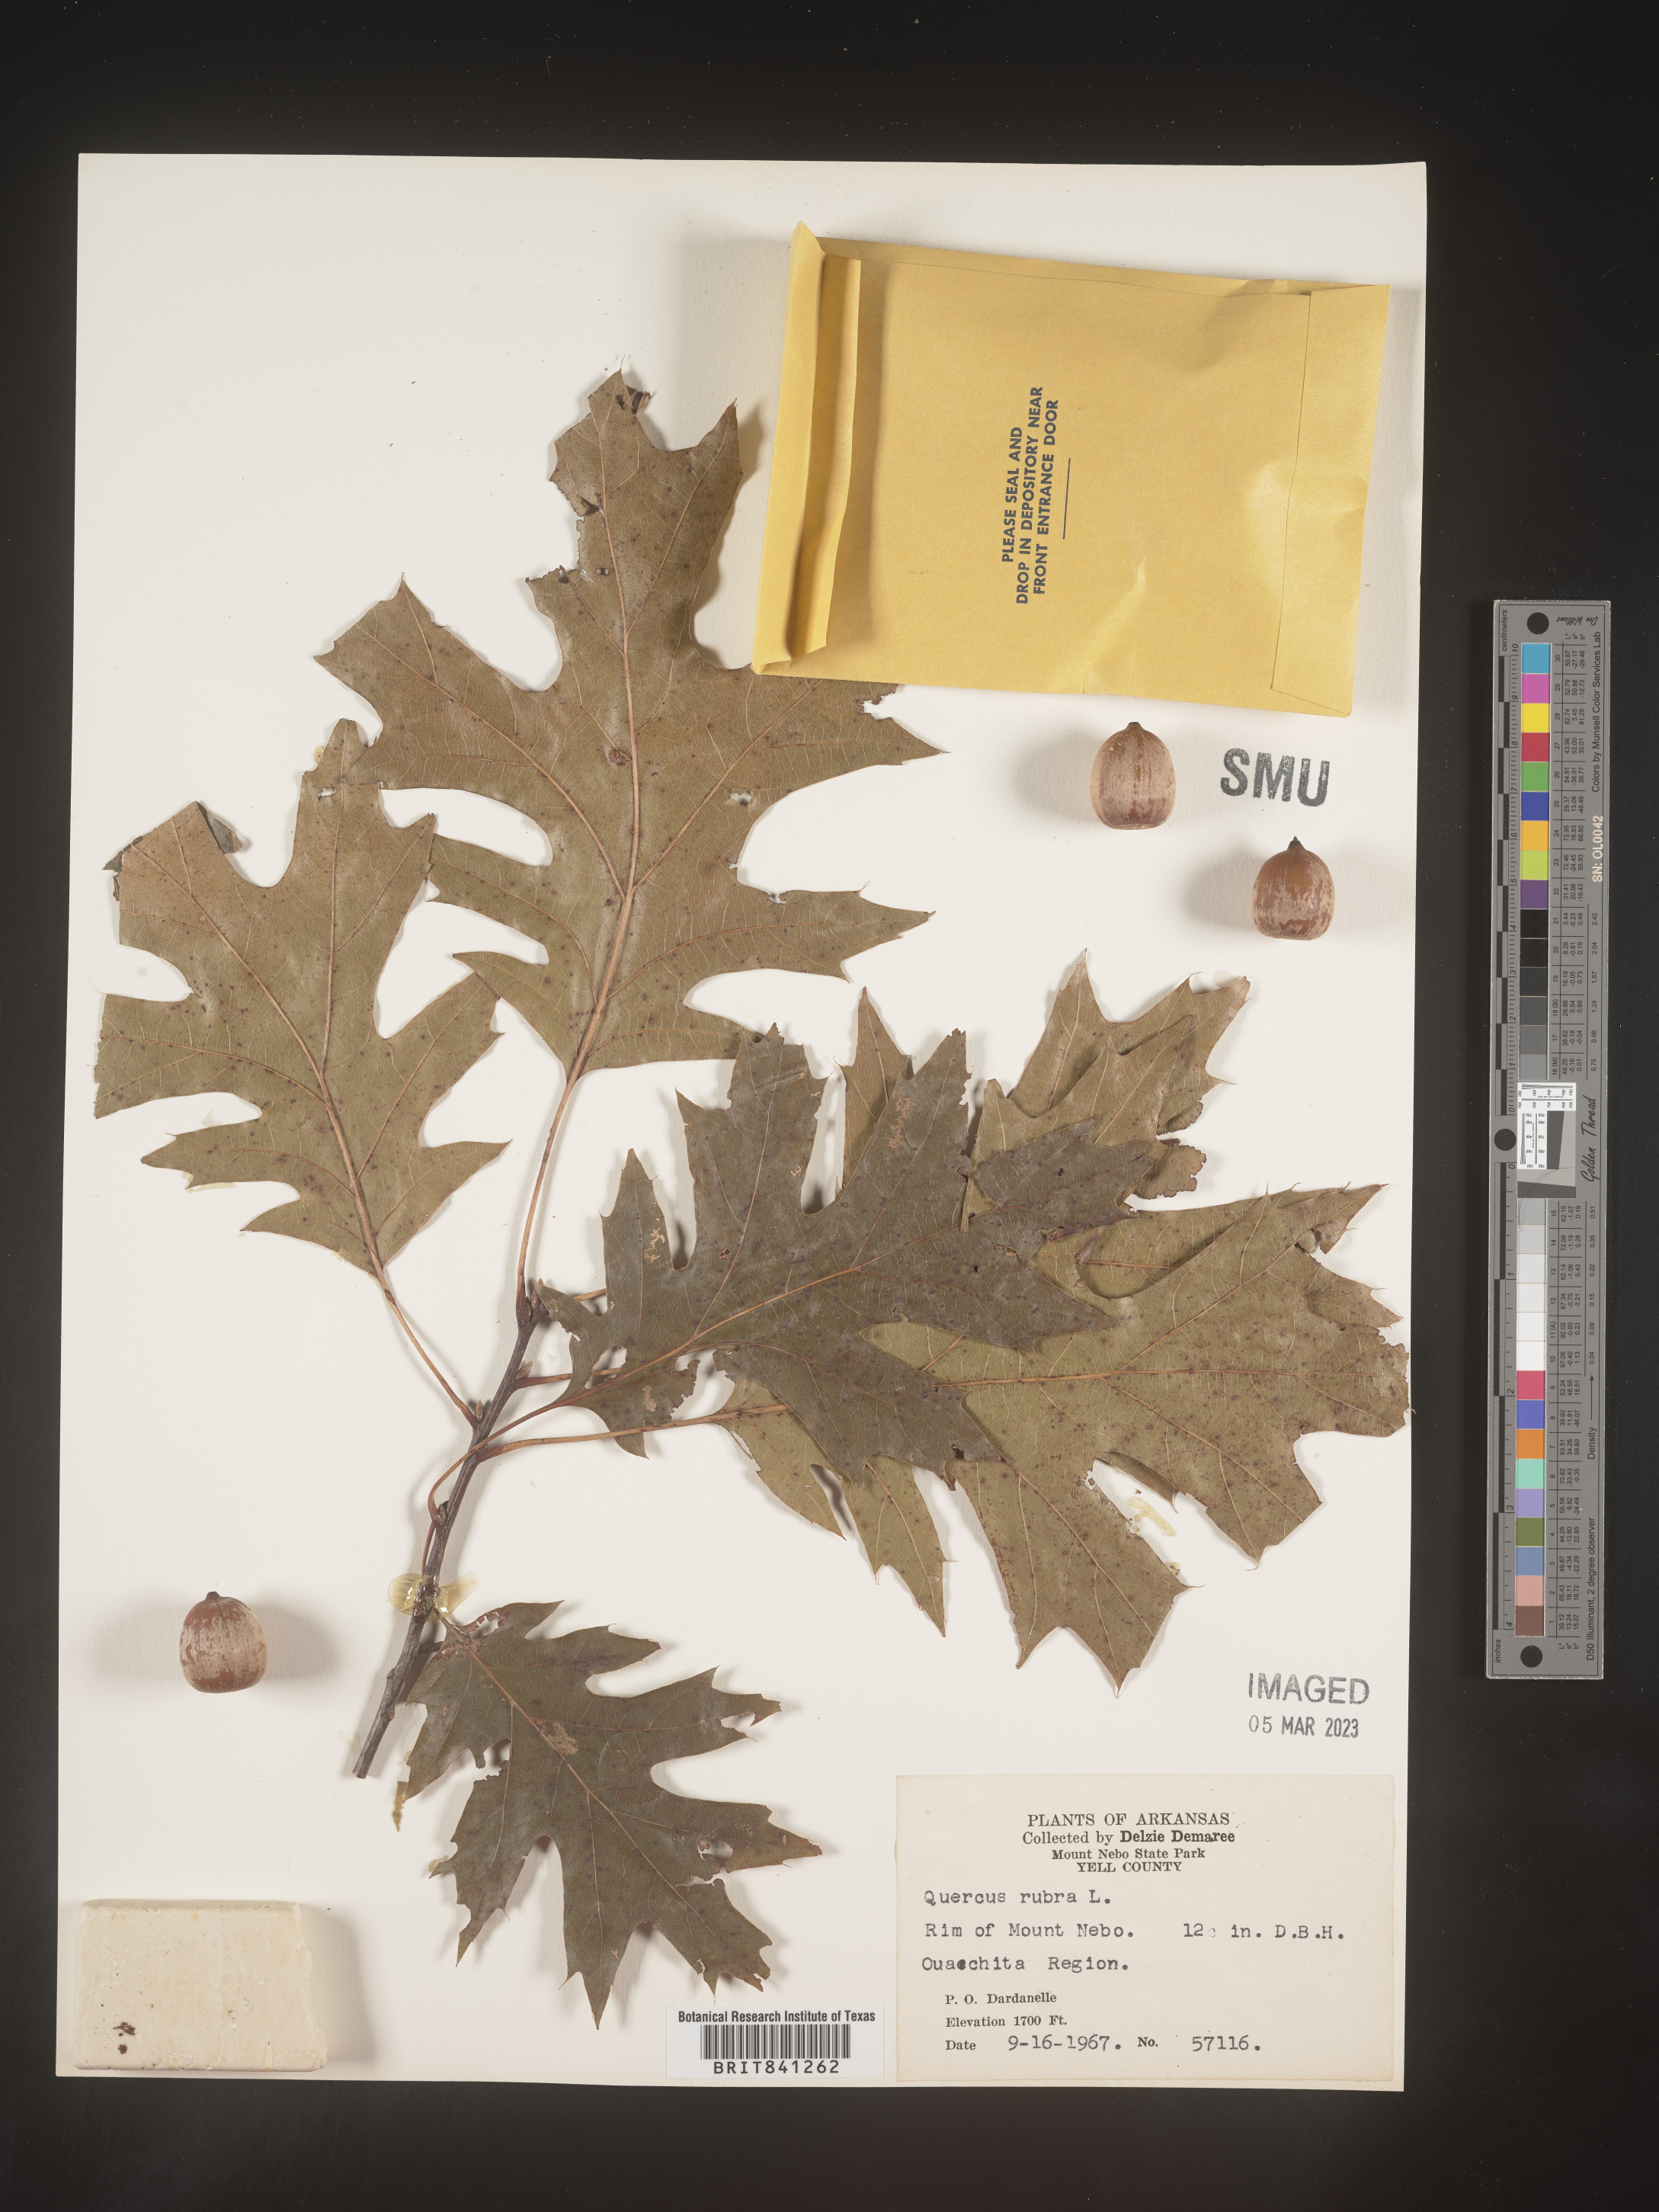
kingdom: Plantae
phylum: Tracheophyta
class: Magnoliopsida
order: Fagales
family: Fagaceae
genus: Quercus
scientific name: Quercus rubra
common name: Red oak
